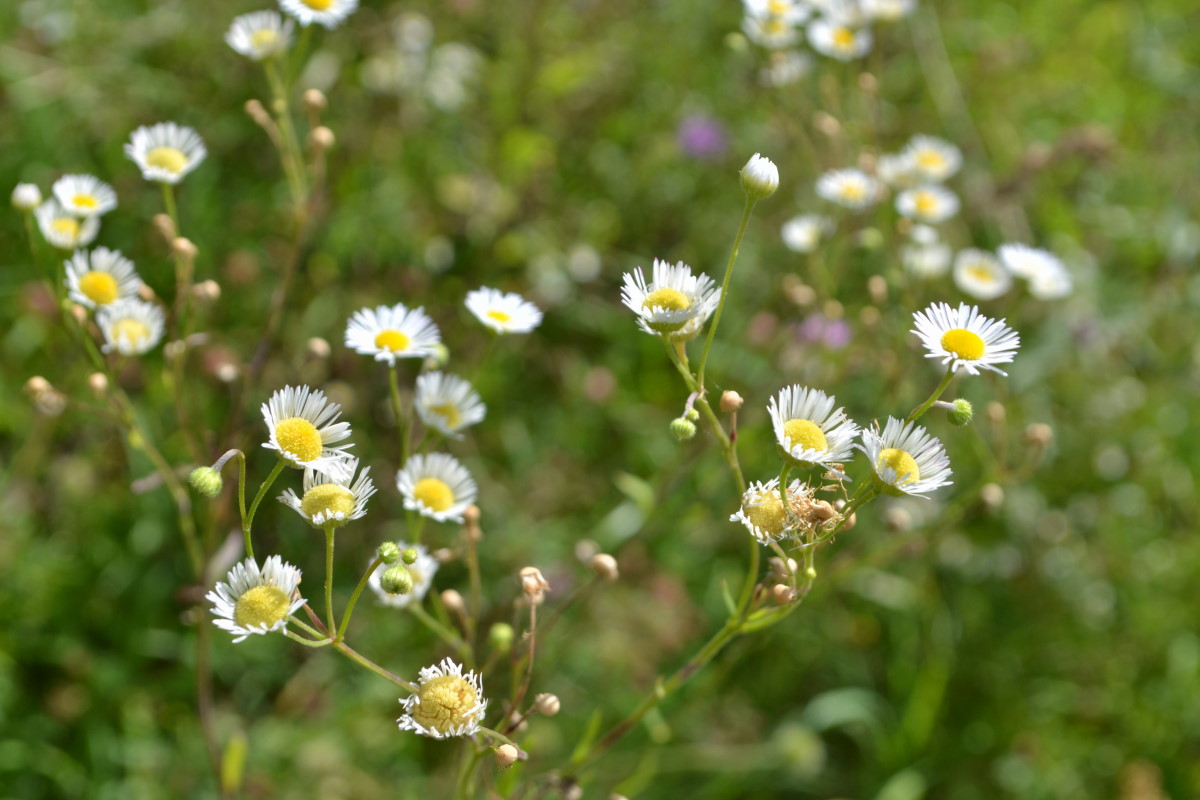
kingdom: Plantae
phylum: Tracheophyta
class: Magnoliopsida
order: Asterales
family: Asteraceae
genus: Erigeron
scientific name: Erigeron annuus
